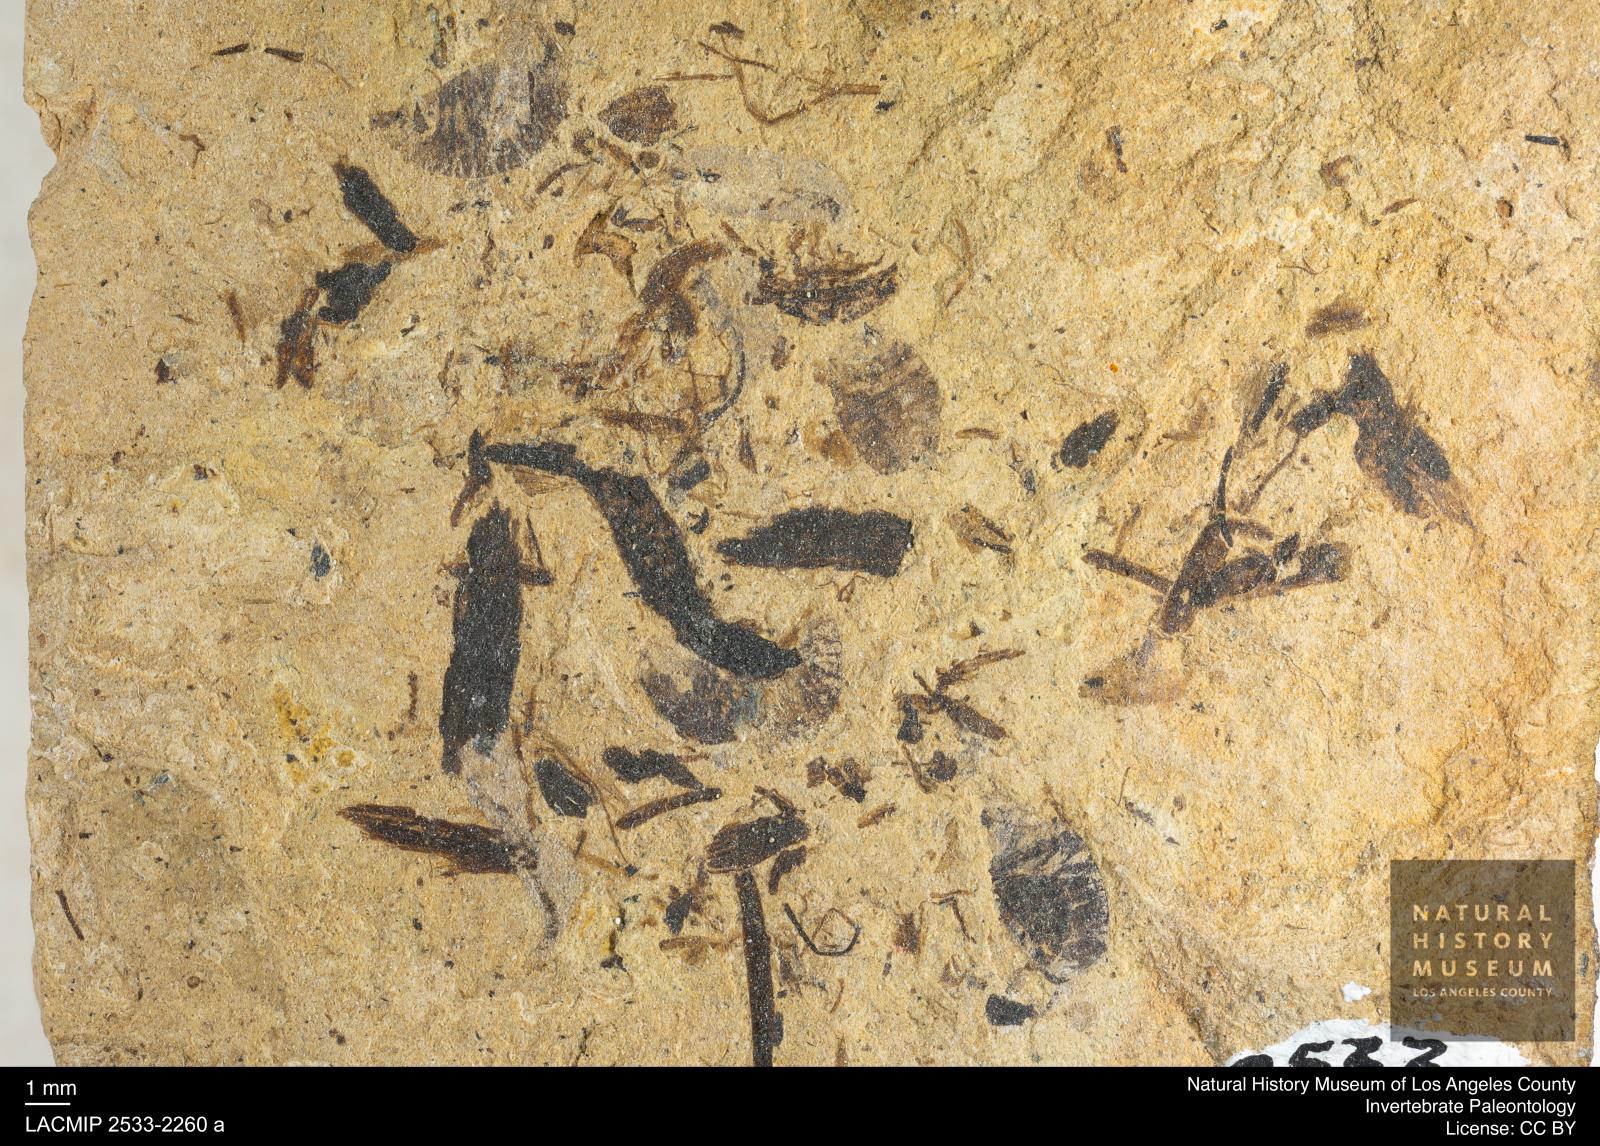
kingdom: Animalia
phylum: Arthropoda
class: Insecta
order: Diptera
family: Syrphidae
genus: Eristalis
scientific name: Eristalis
